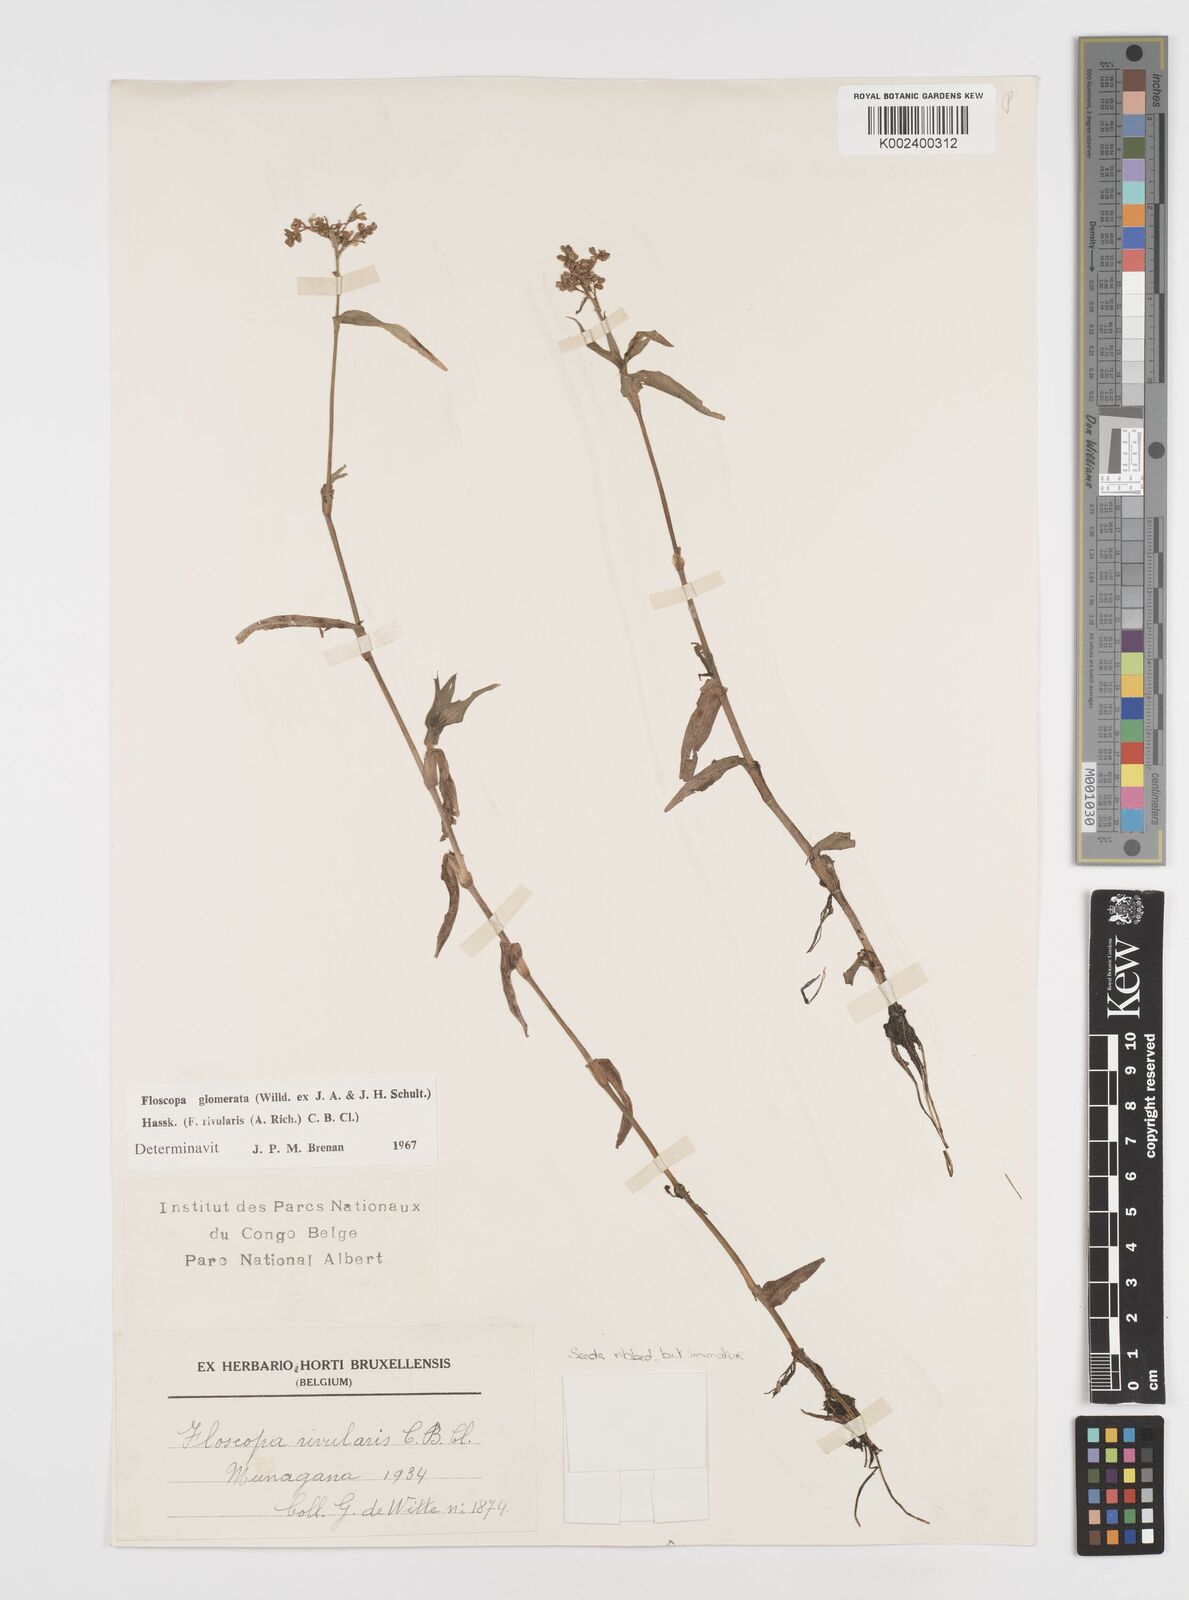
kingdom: Plantae
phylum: Tracheophyta
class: Liliopsida
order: Commelinales
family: Commelinaceae
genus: Floscopa
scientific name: Floscopa glomerata
